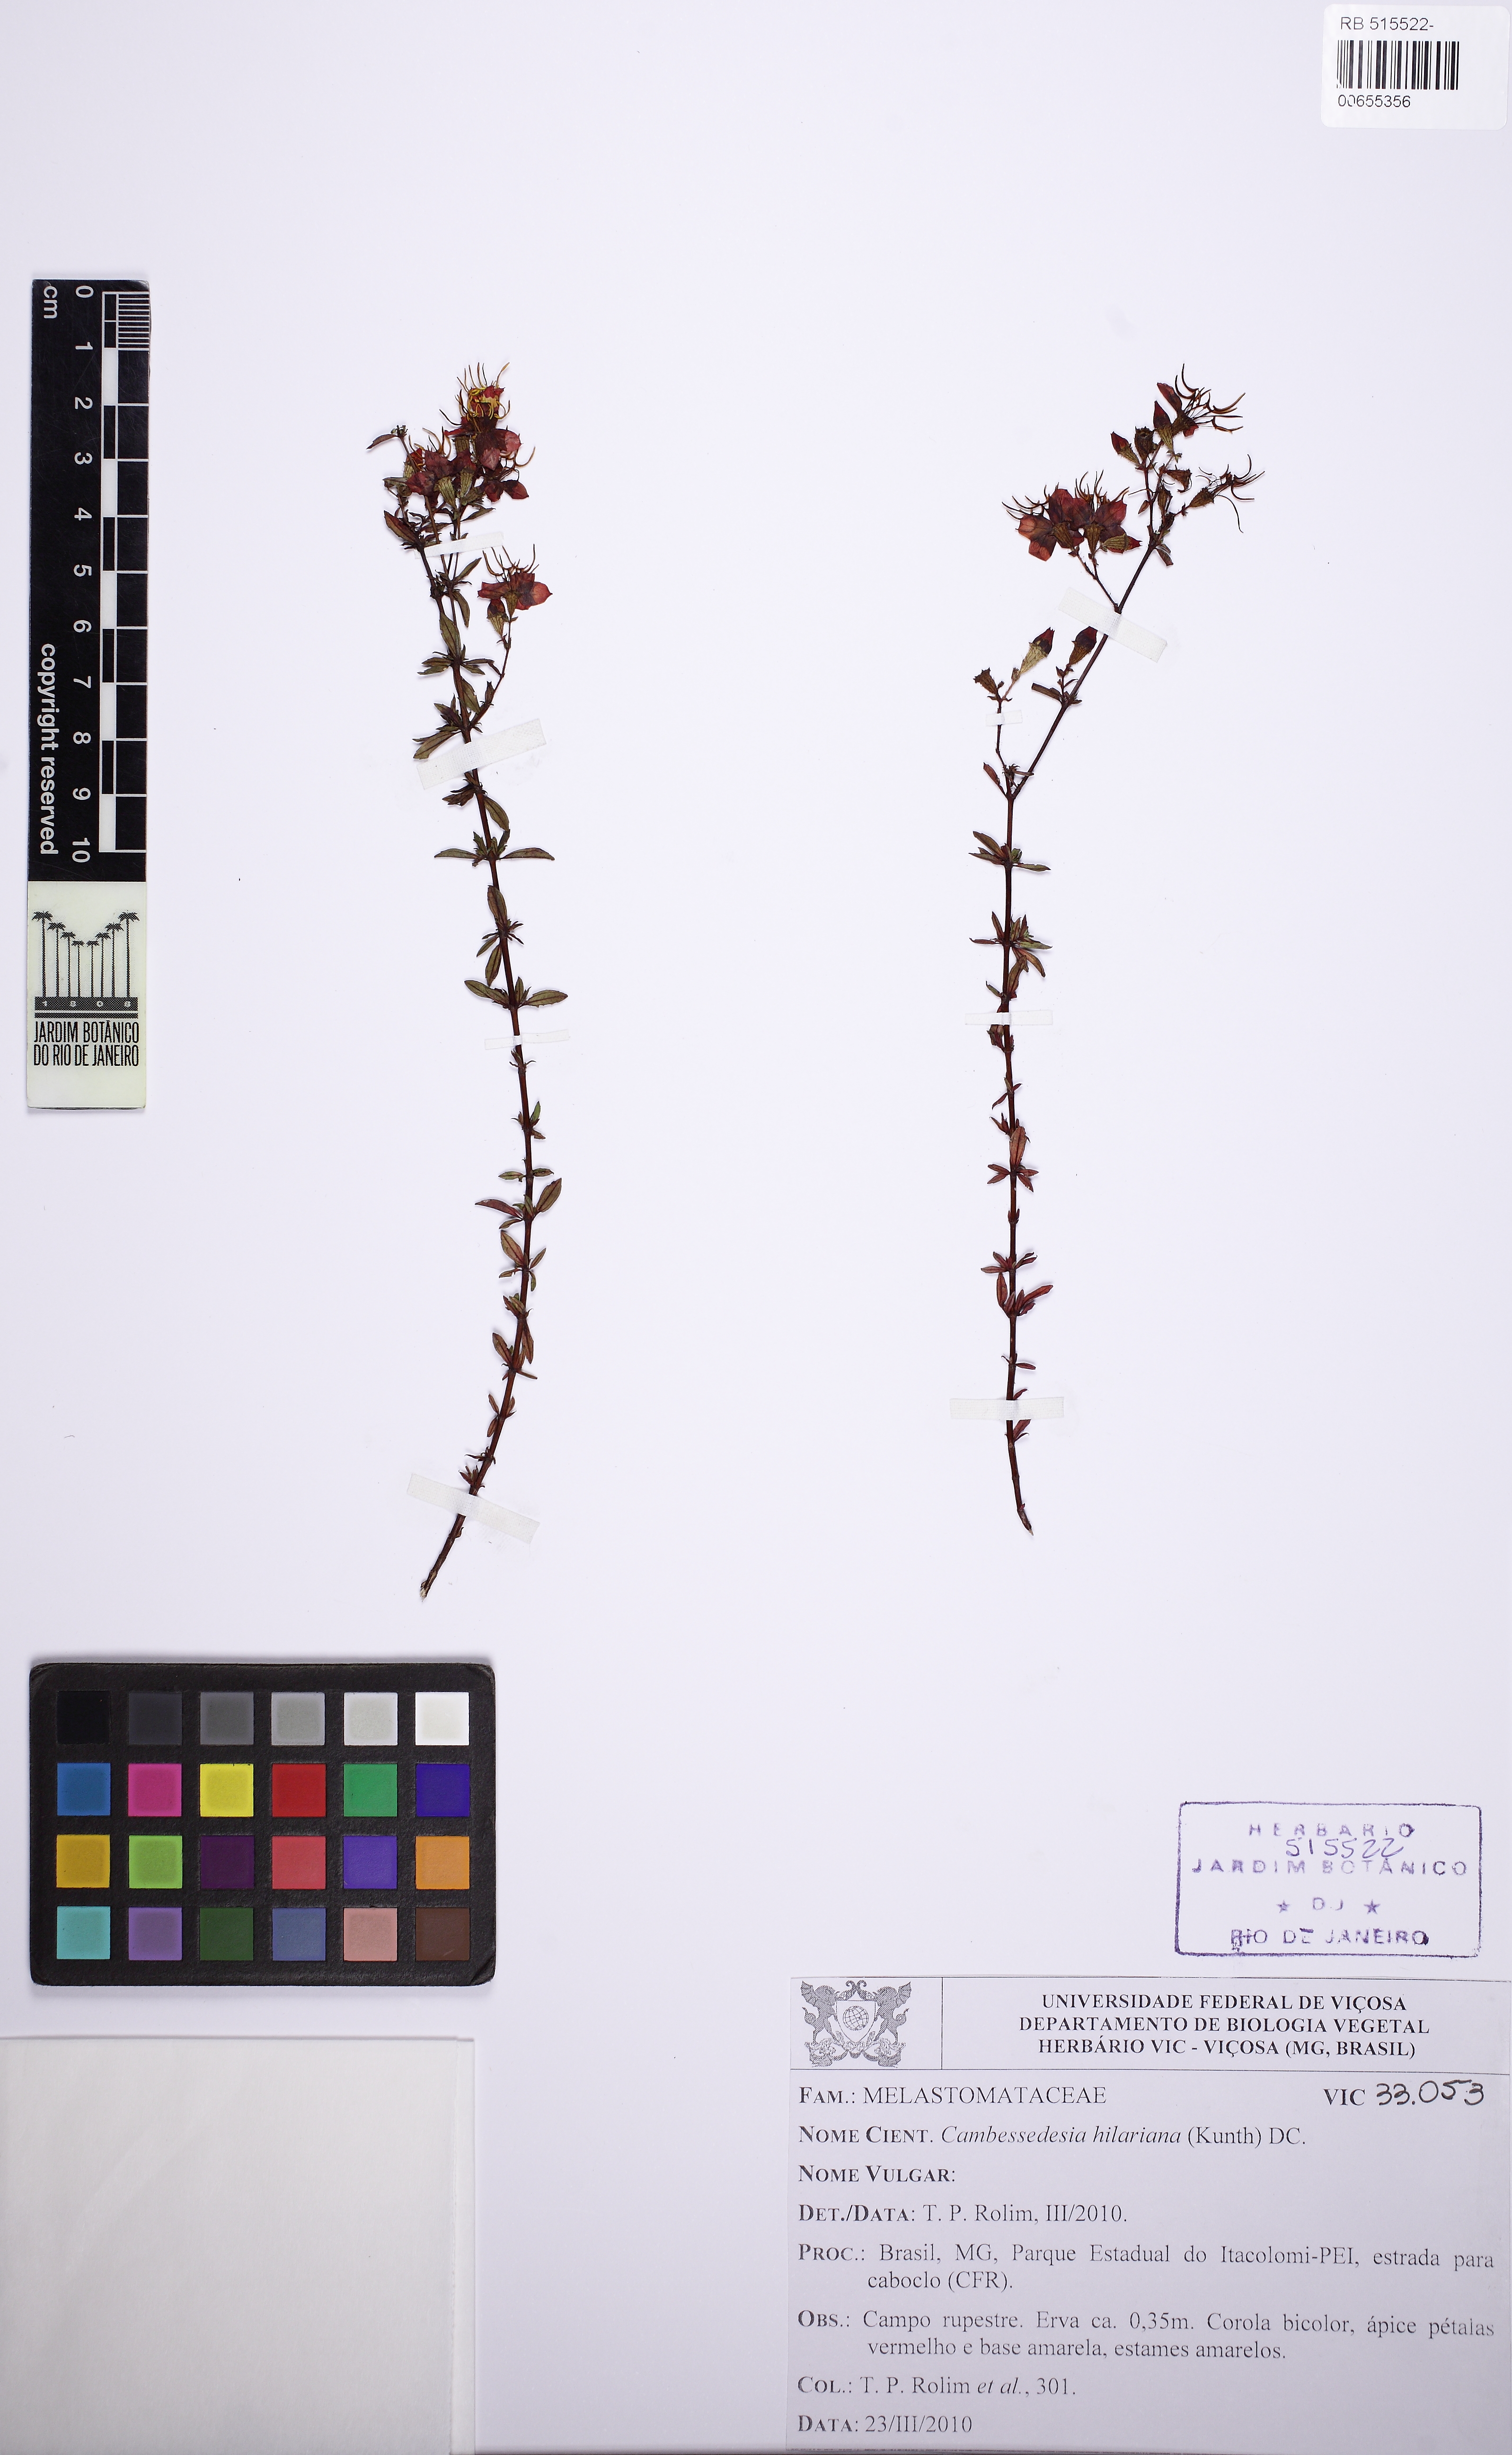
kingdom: Plantae
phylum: Tracheophyta
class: Magnoliopsida
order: Myrtales
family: Melastomataceae
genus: Cambessedesia
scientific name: Cambessedesia hilariana
